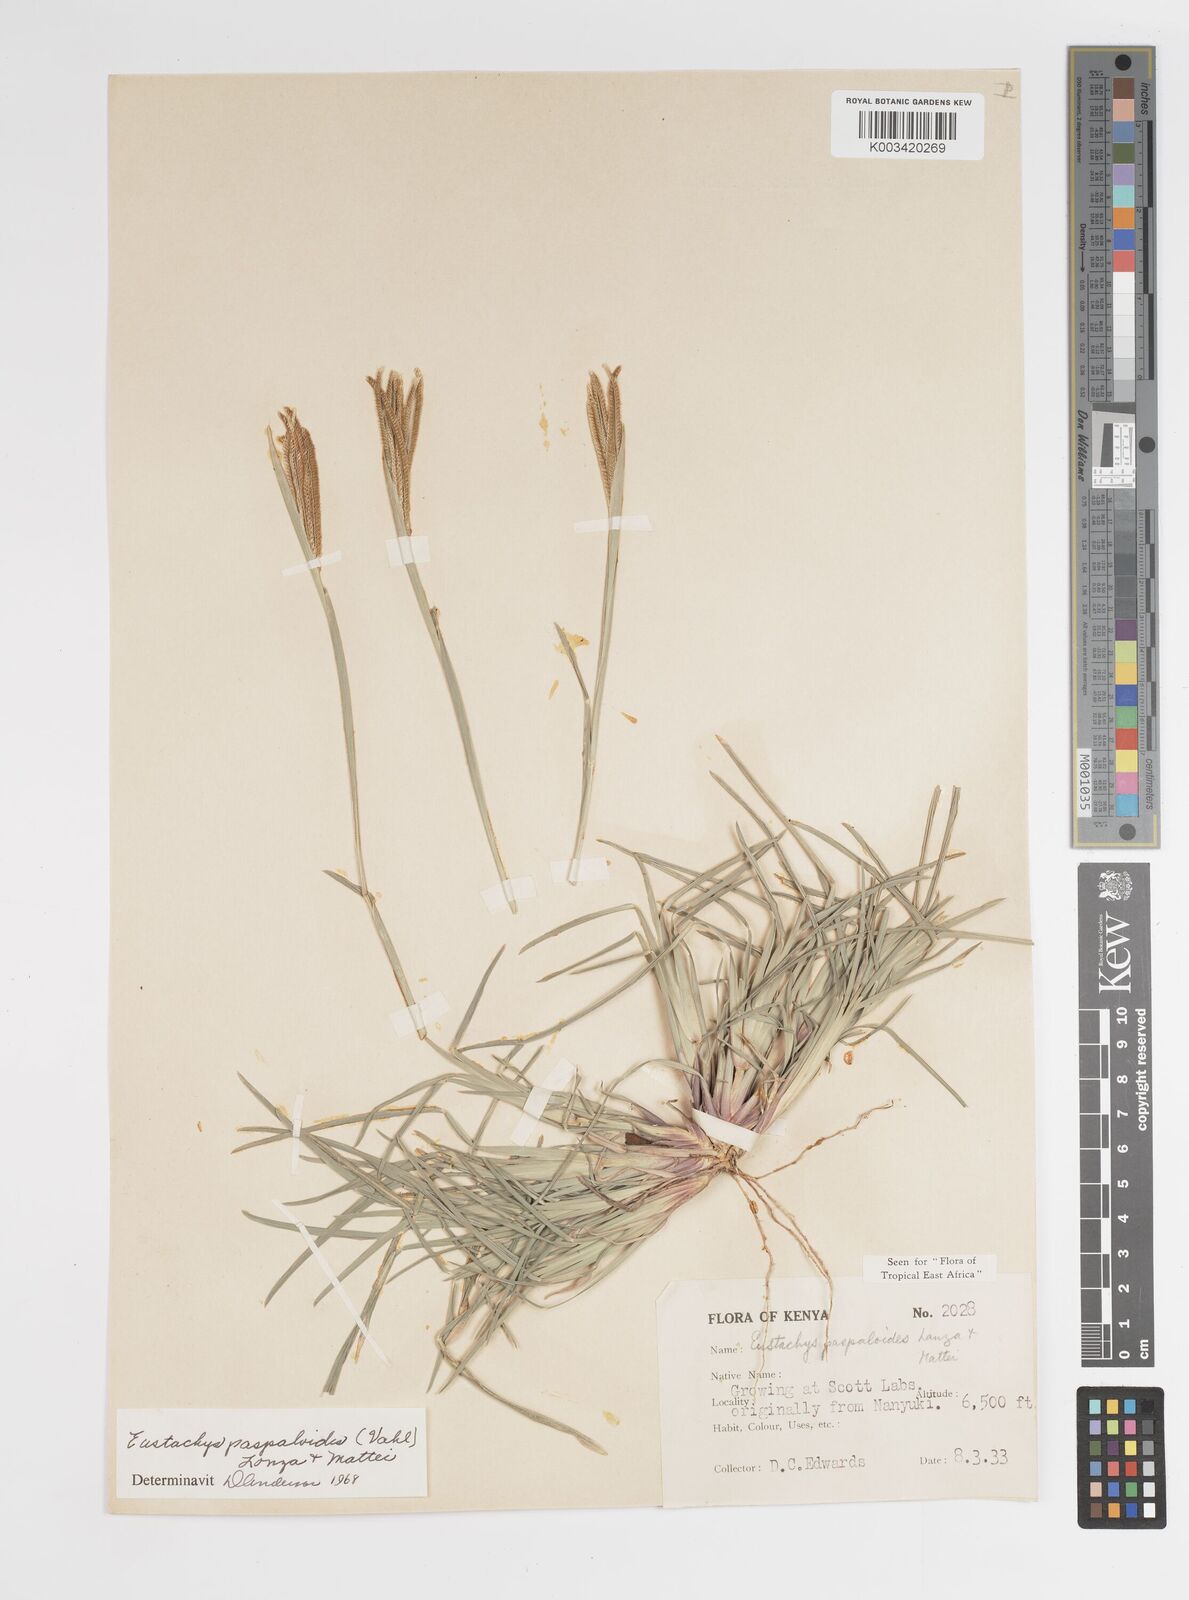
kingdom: Plantae
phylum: Tracheophyta
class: Liliopsida
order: Poales
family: Poaceae
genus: Eustachys
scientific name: Eustachys paspaloides
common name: Caribbean fingergrass
